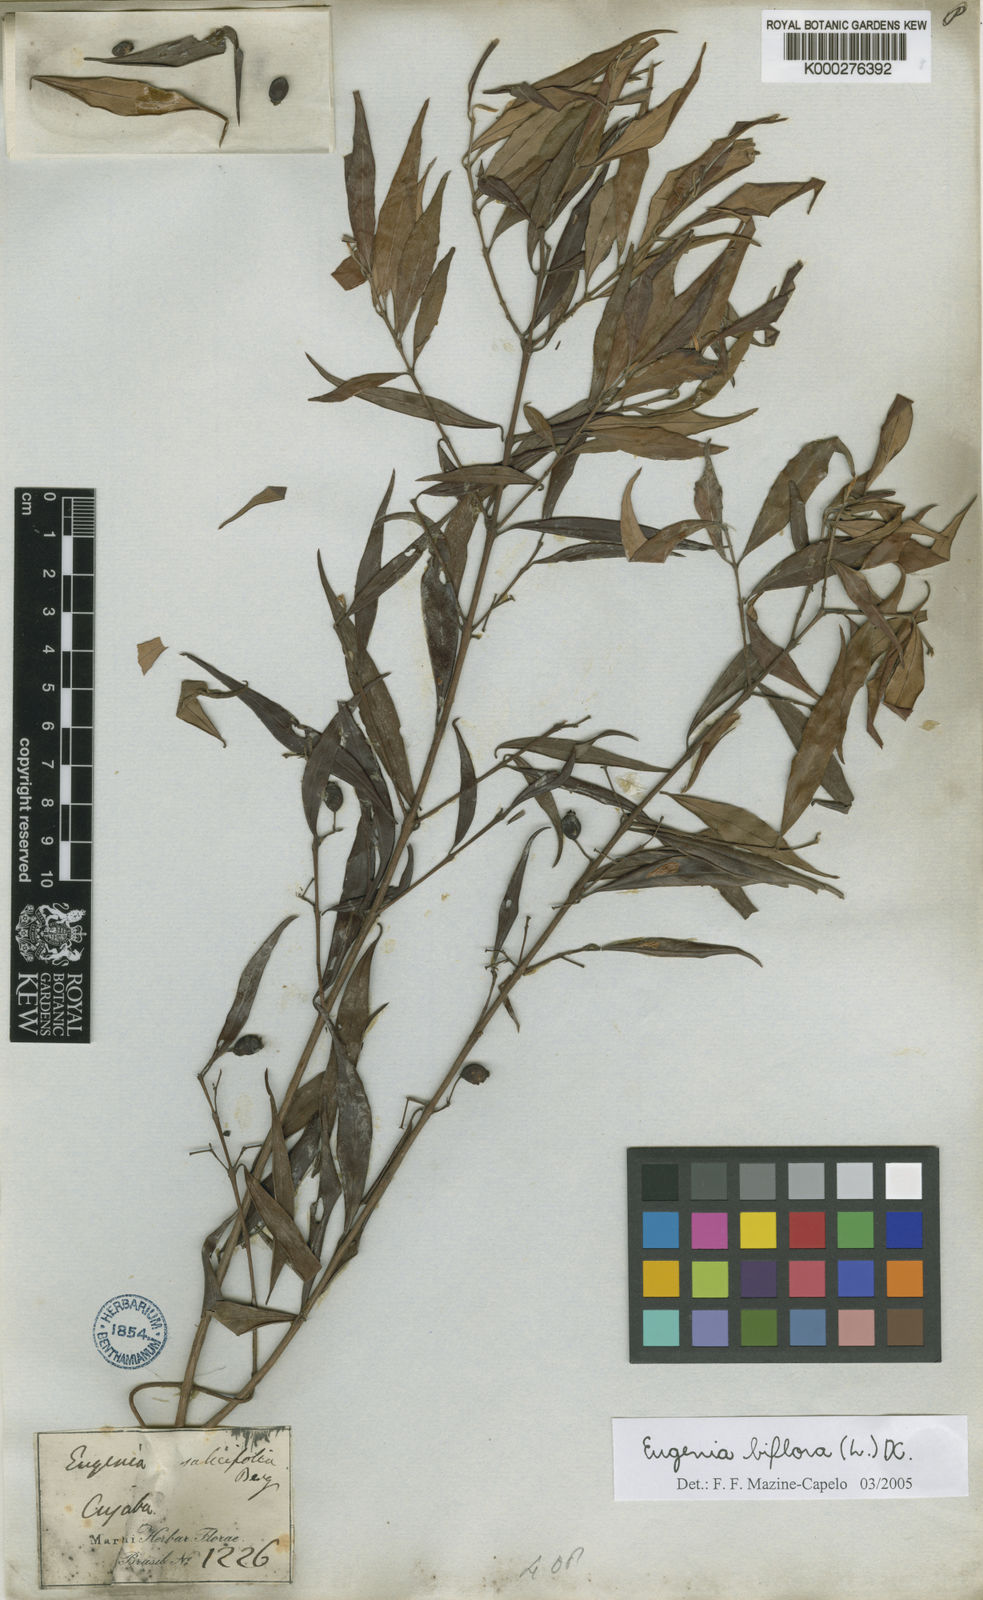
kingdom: Plantae
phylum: Tracheophyta
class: Magnoliopsida
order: Myrtales
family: Myrtaceae
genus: Eugenia
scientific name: Eugenia biflora
